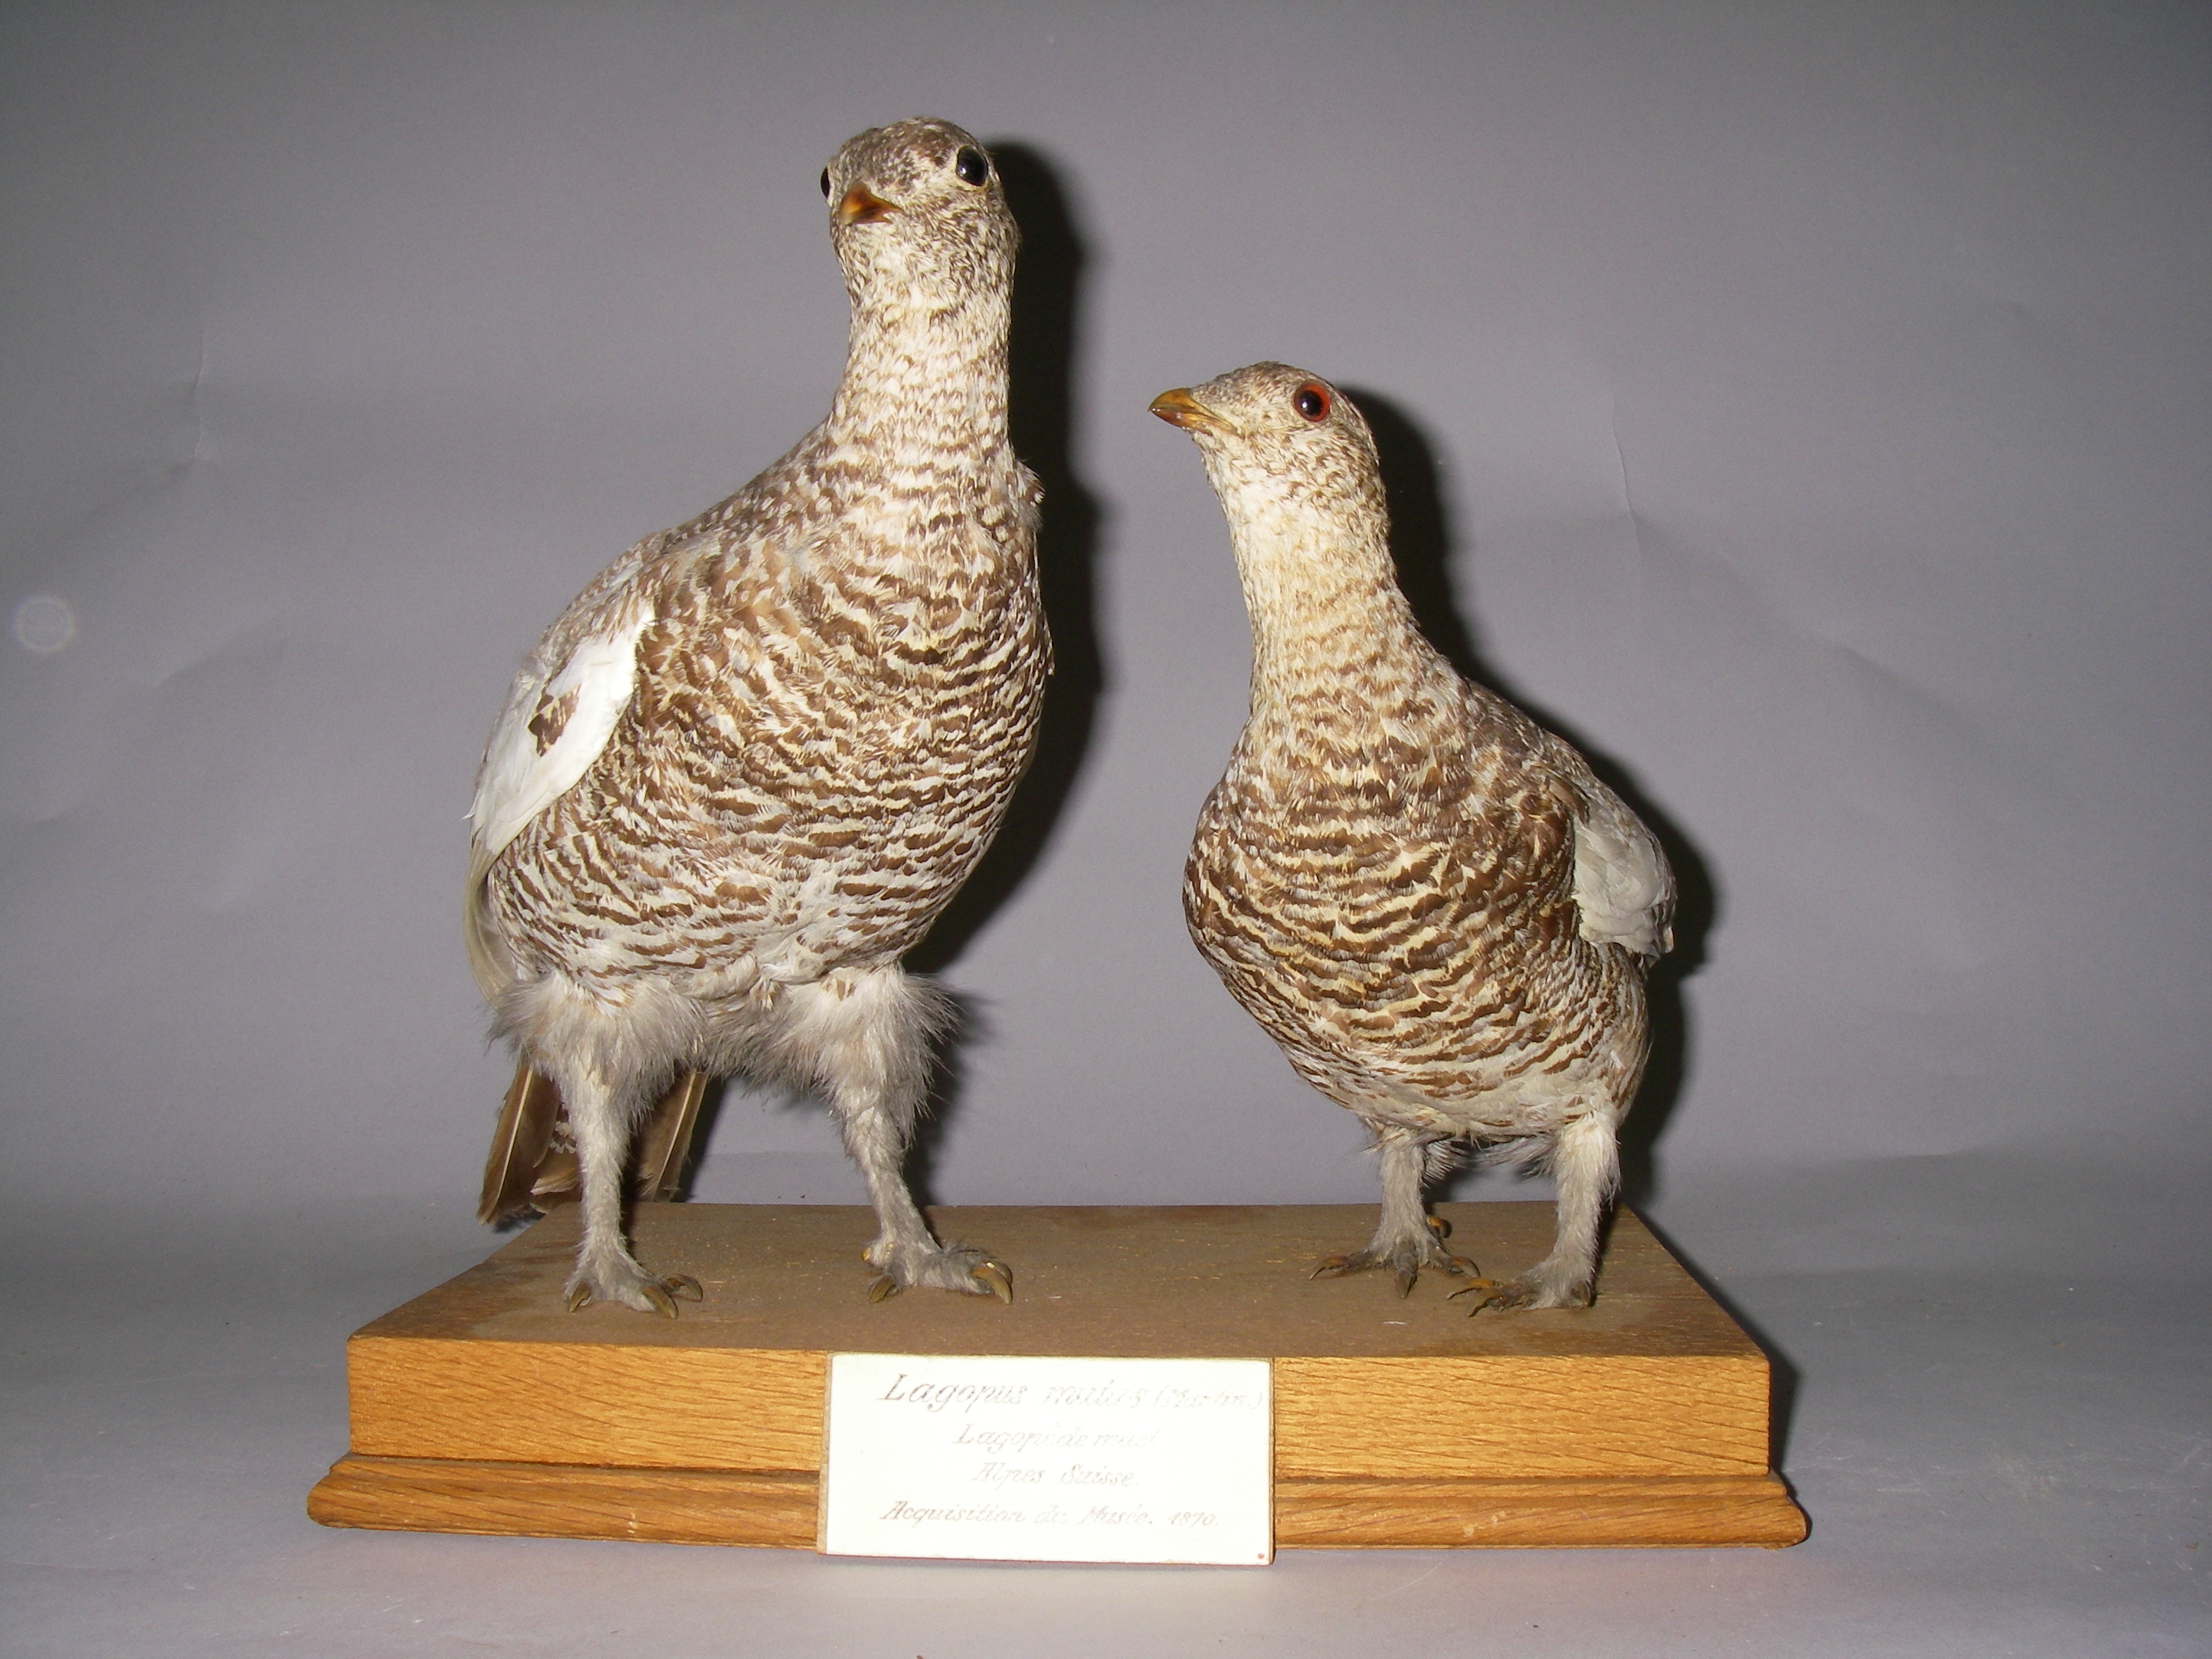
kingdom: Animalia
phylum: Chordata
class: Aves
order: Galliformes
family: Phasianidae
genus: Lagopus
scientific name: Lagopus muta
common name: Rock ptarmigan
